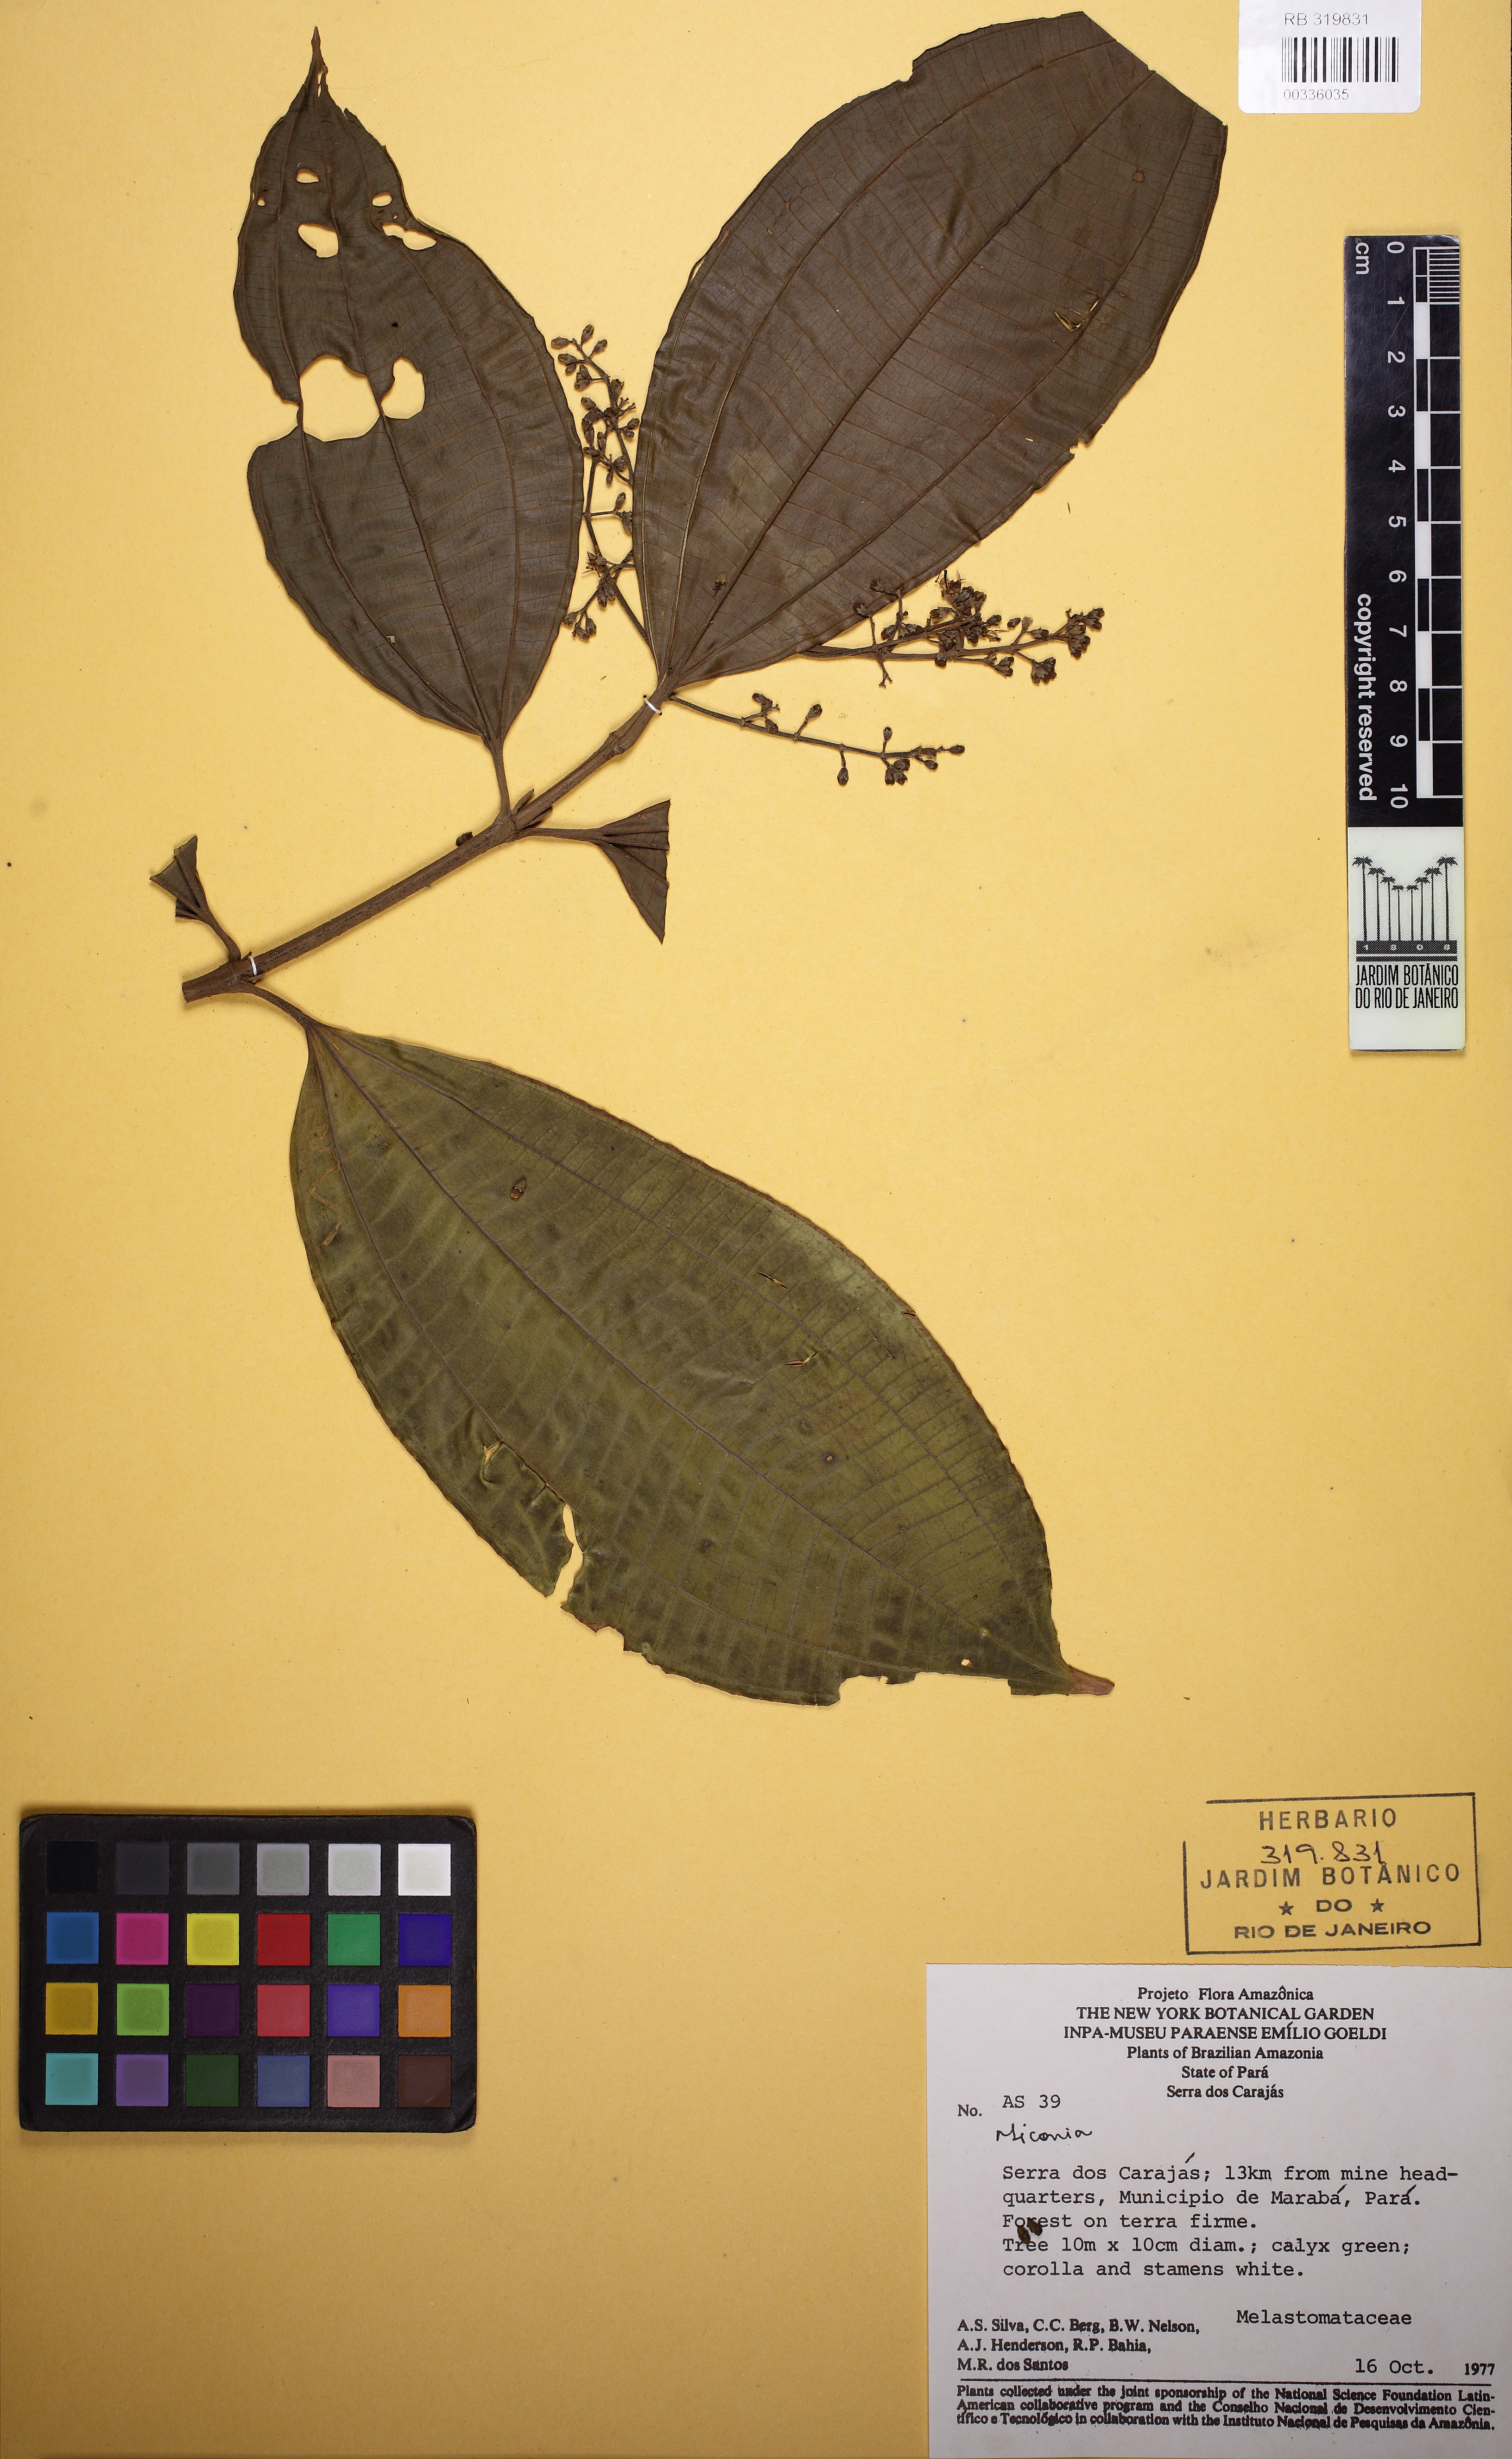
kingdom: Plantae
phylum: Tracheophyta
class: Magnoliopsida
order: Myrtales
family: Melastomataceae
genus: Miconia
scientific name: Miconia affinis
